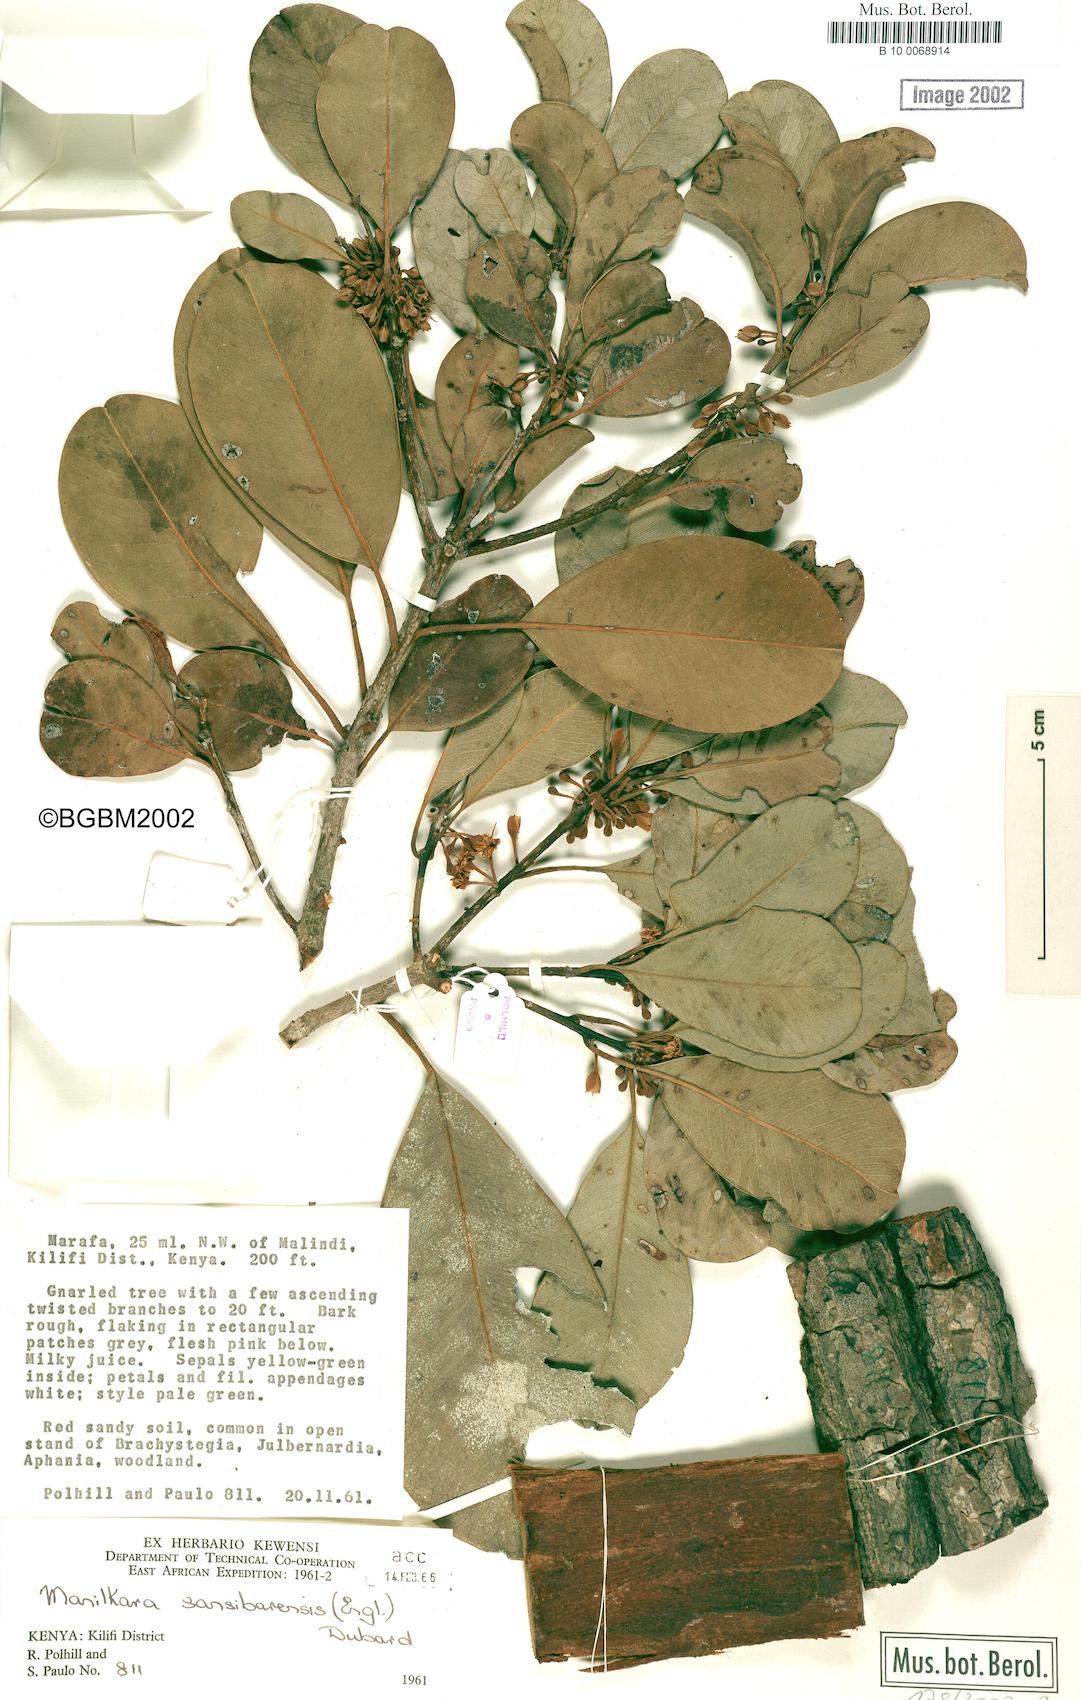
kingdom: Plantae
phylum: Tracheophyta
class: Magnoliopsida
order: Ericales
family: Sapotaceae
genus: Manilkara
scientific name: Manilkara sansibarensis
